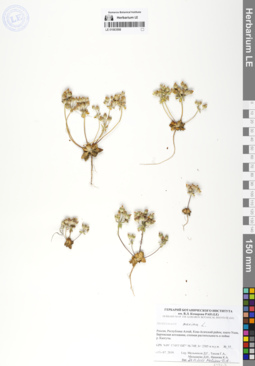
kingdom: Plantae
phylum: Tracheophyta
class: Magnoliopsida
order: Ericales
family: Primulaceae
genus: Androsace
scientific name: Androsace maxima
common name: Annual androsace
